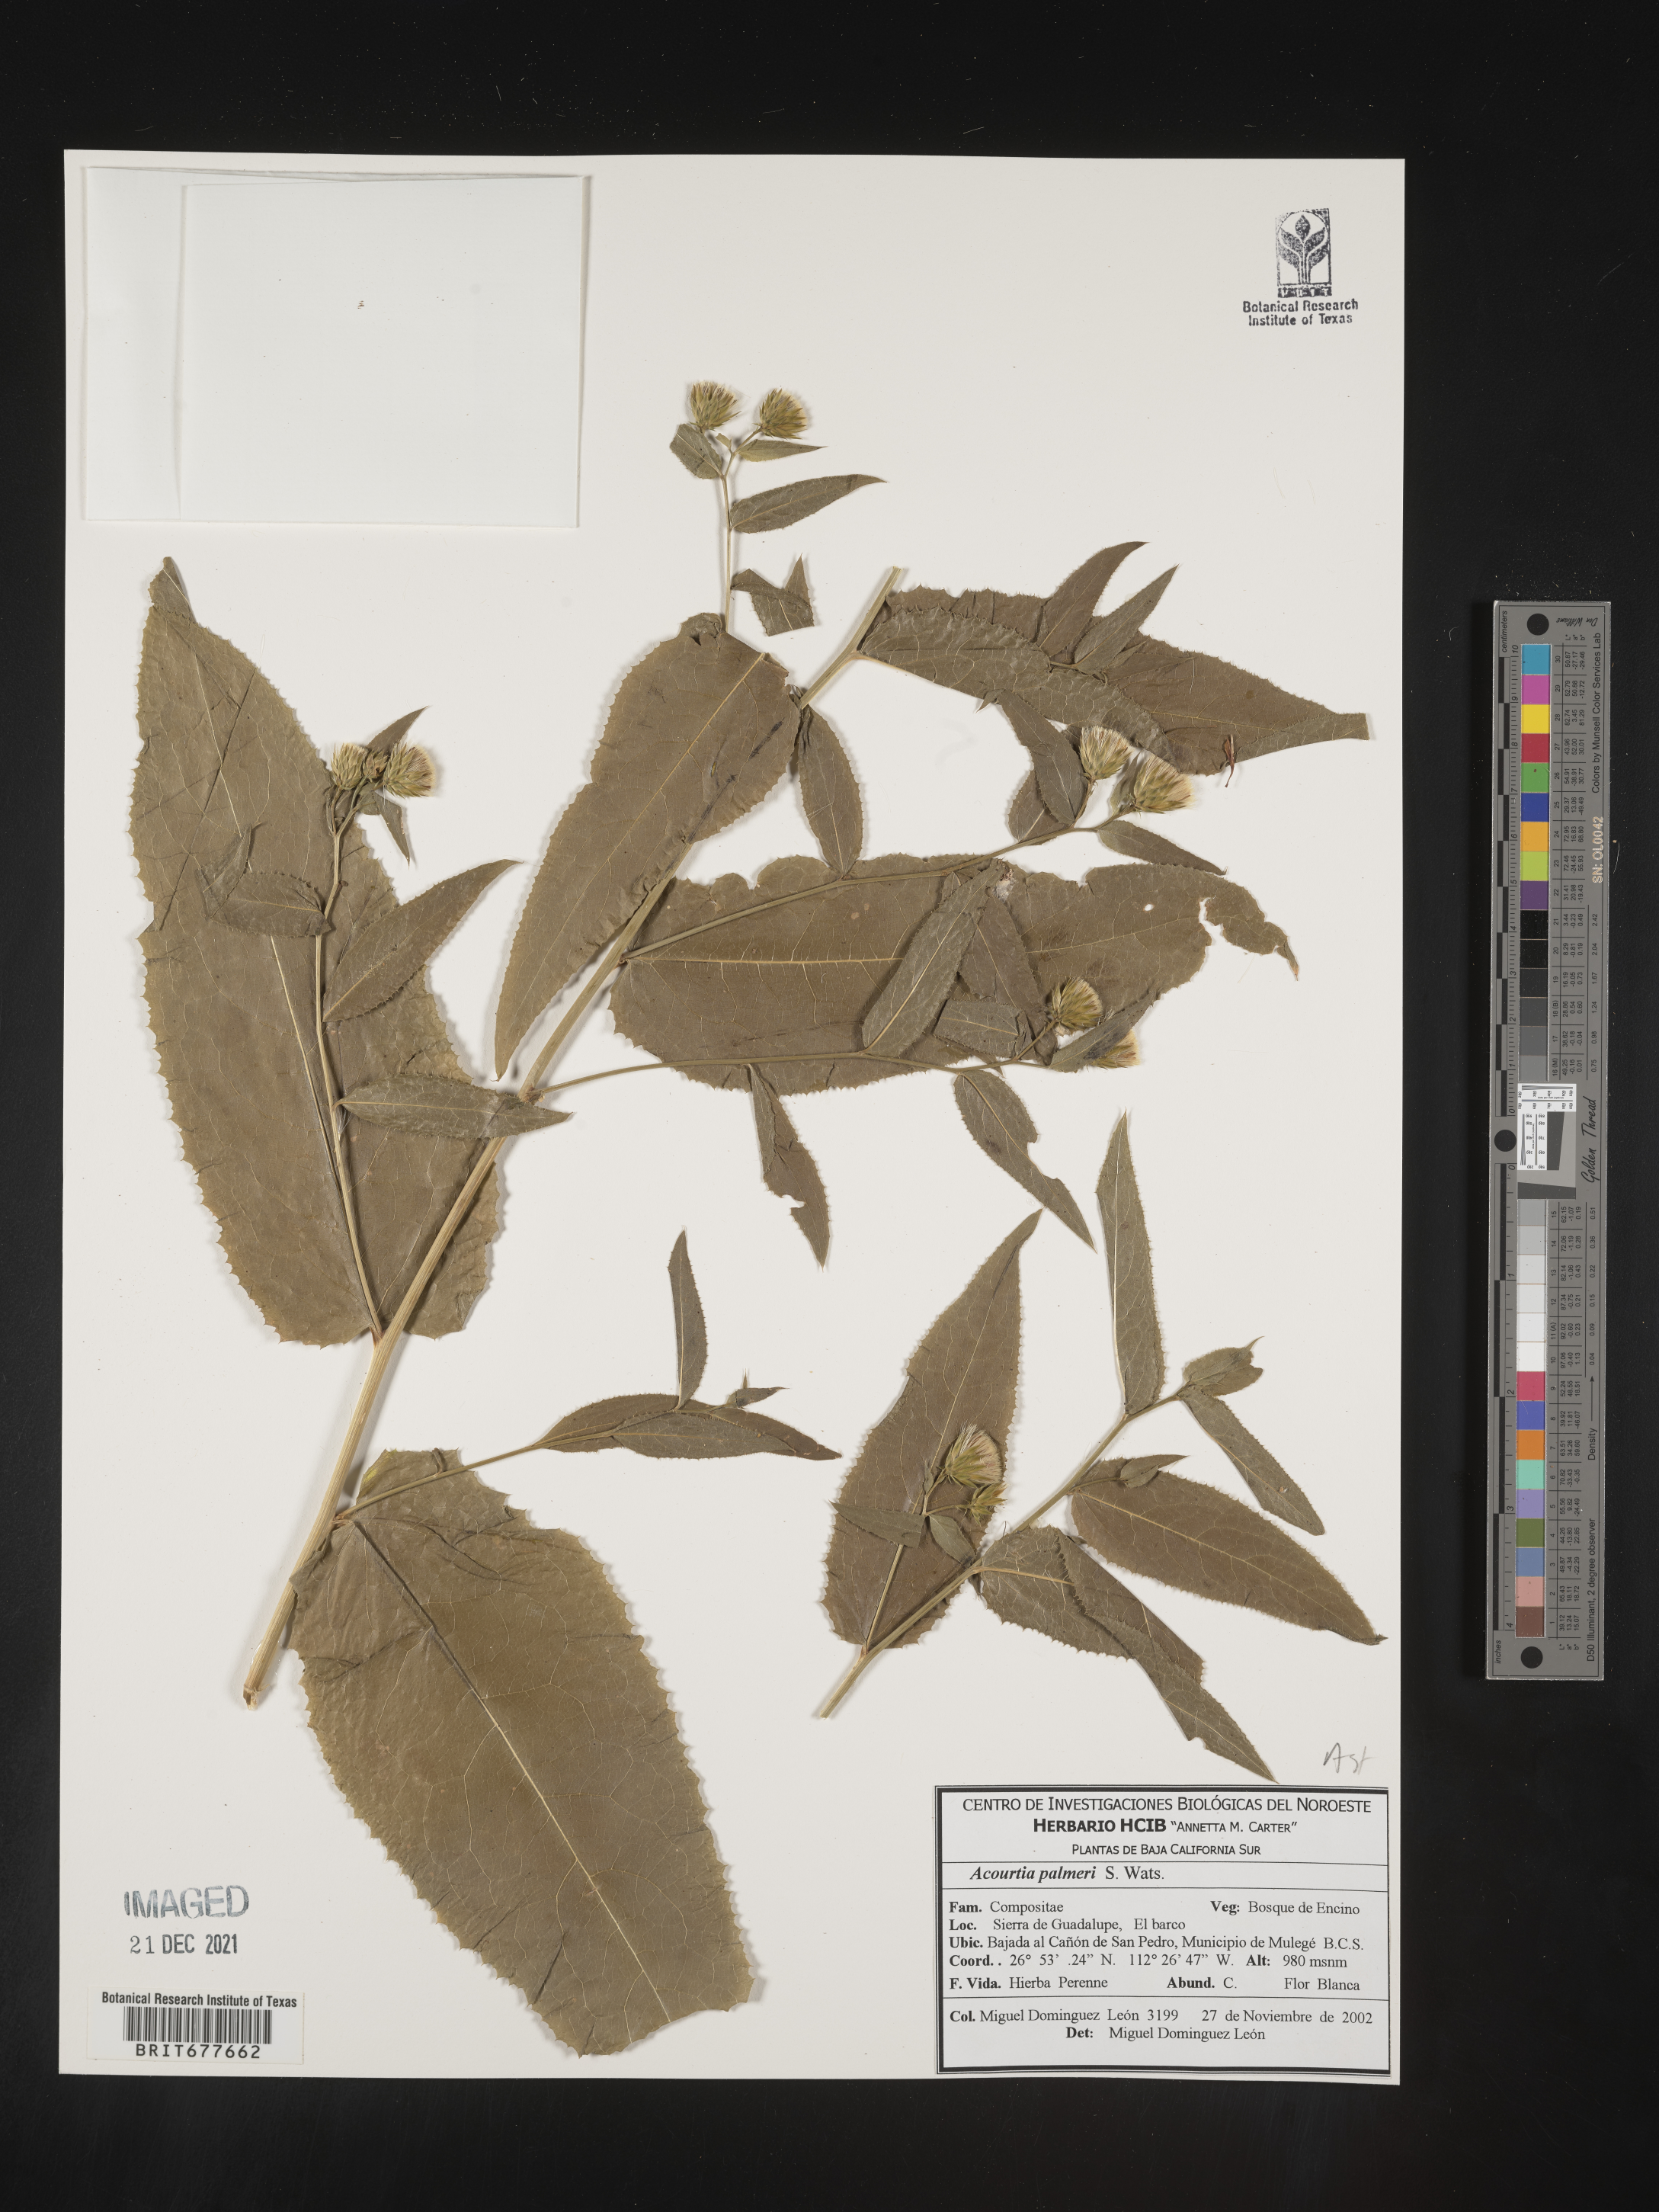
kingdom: Plantae
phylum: Tracheophyta
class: Magnoliopsida
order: Asterales
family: Asteraceae
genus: Acourtia
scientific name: Acourtia
